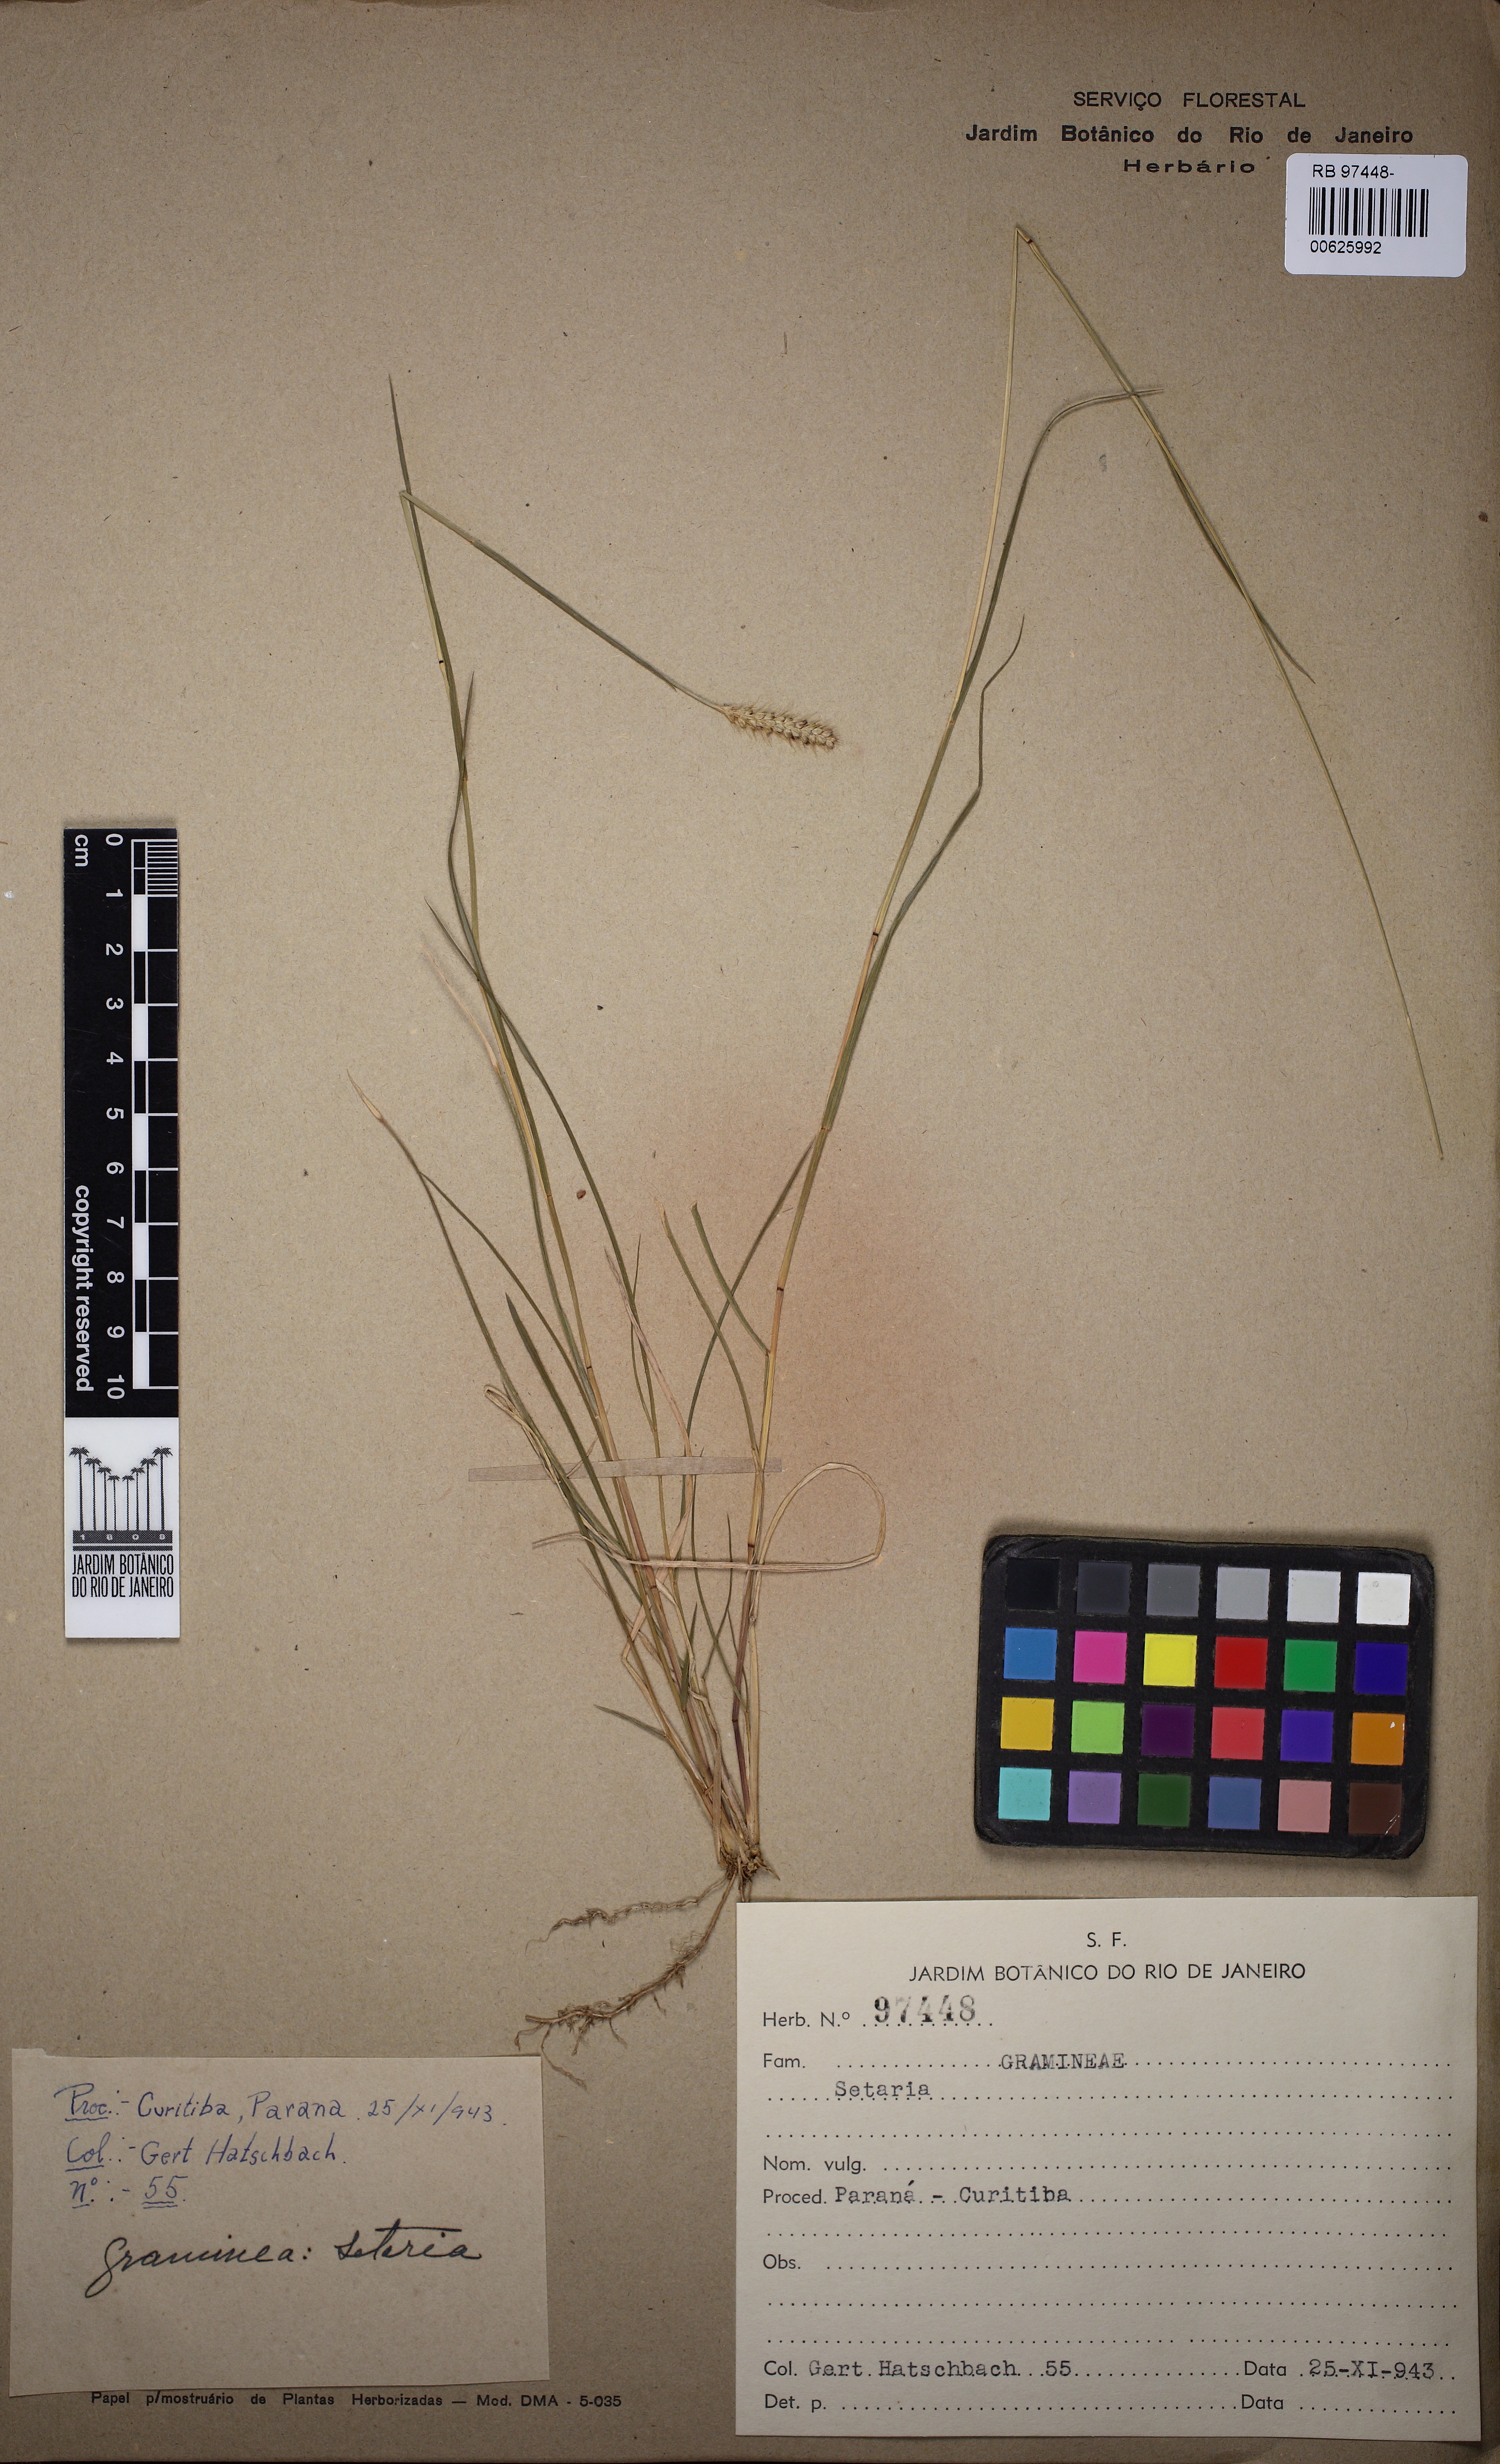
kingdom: Plantae
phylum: Tracheophyta
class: Liliopsida
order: Poales
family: Poaceae
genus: Setaria
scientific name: Setaria
